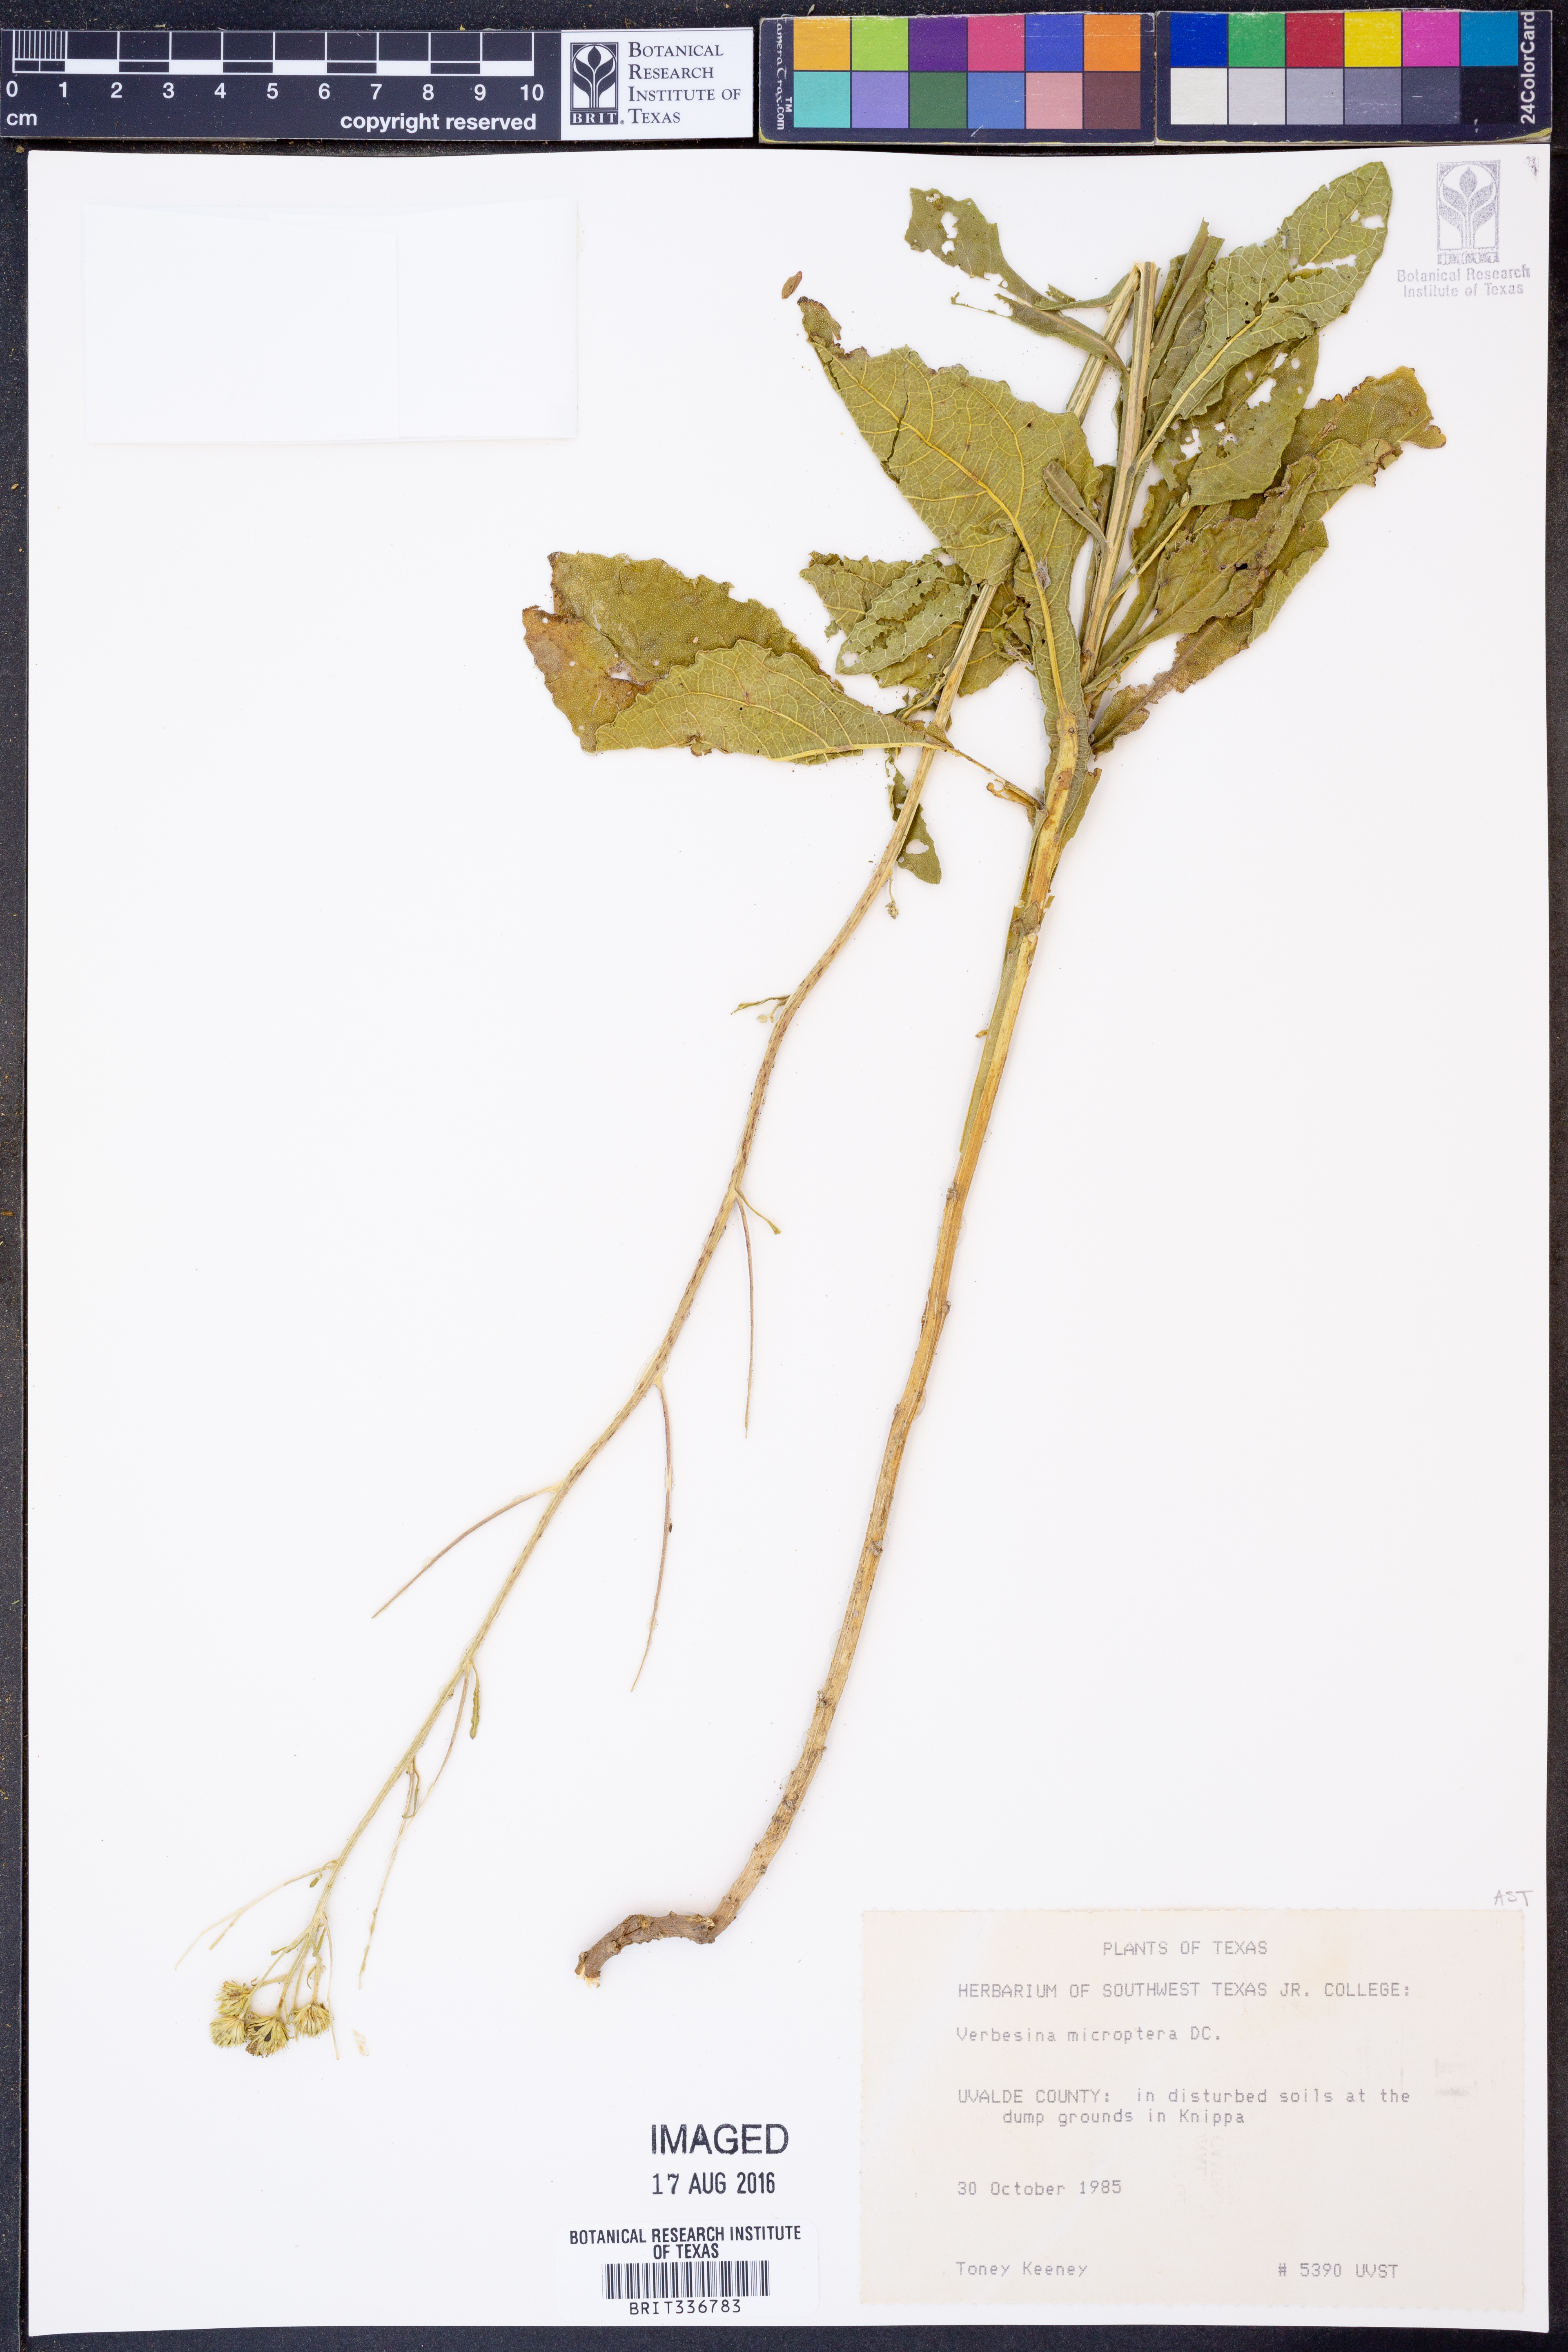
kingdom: Plantae
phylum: Tracheophyta
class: Magnoliopsida
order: Asterales
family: Asteraceae
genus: Verbesina
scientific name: Verbesina encelioides
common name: Golden crownbeard
